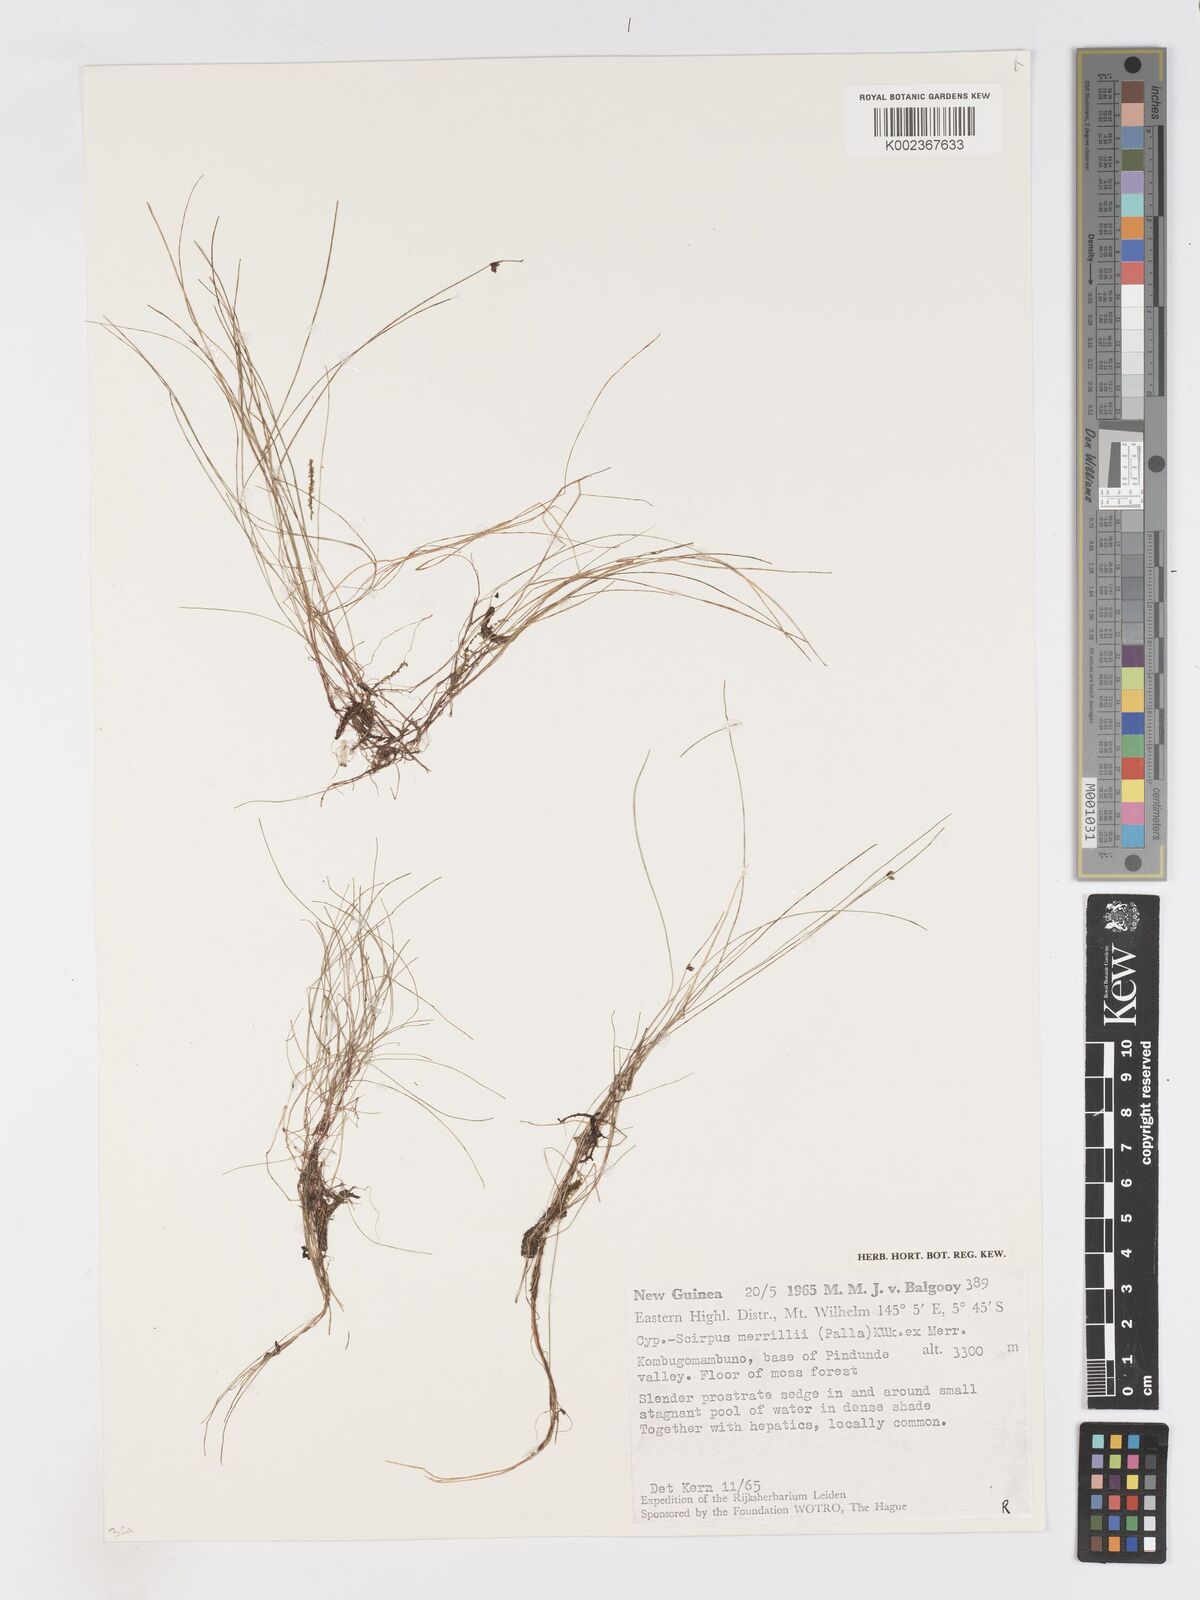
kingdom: Plantae
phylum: Tracheophyta
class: Liliopsida
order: Poales
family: Cyperaceae
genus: Isolepis
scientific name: Isolepis habra
